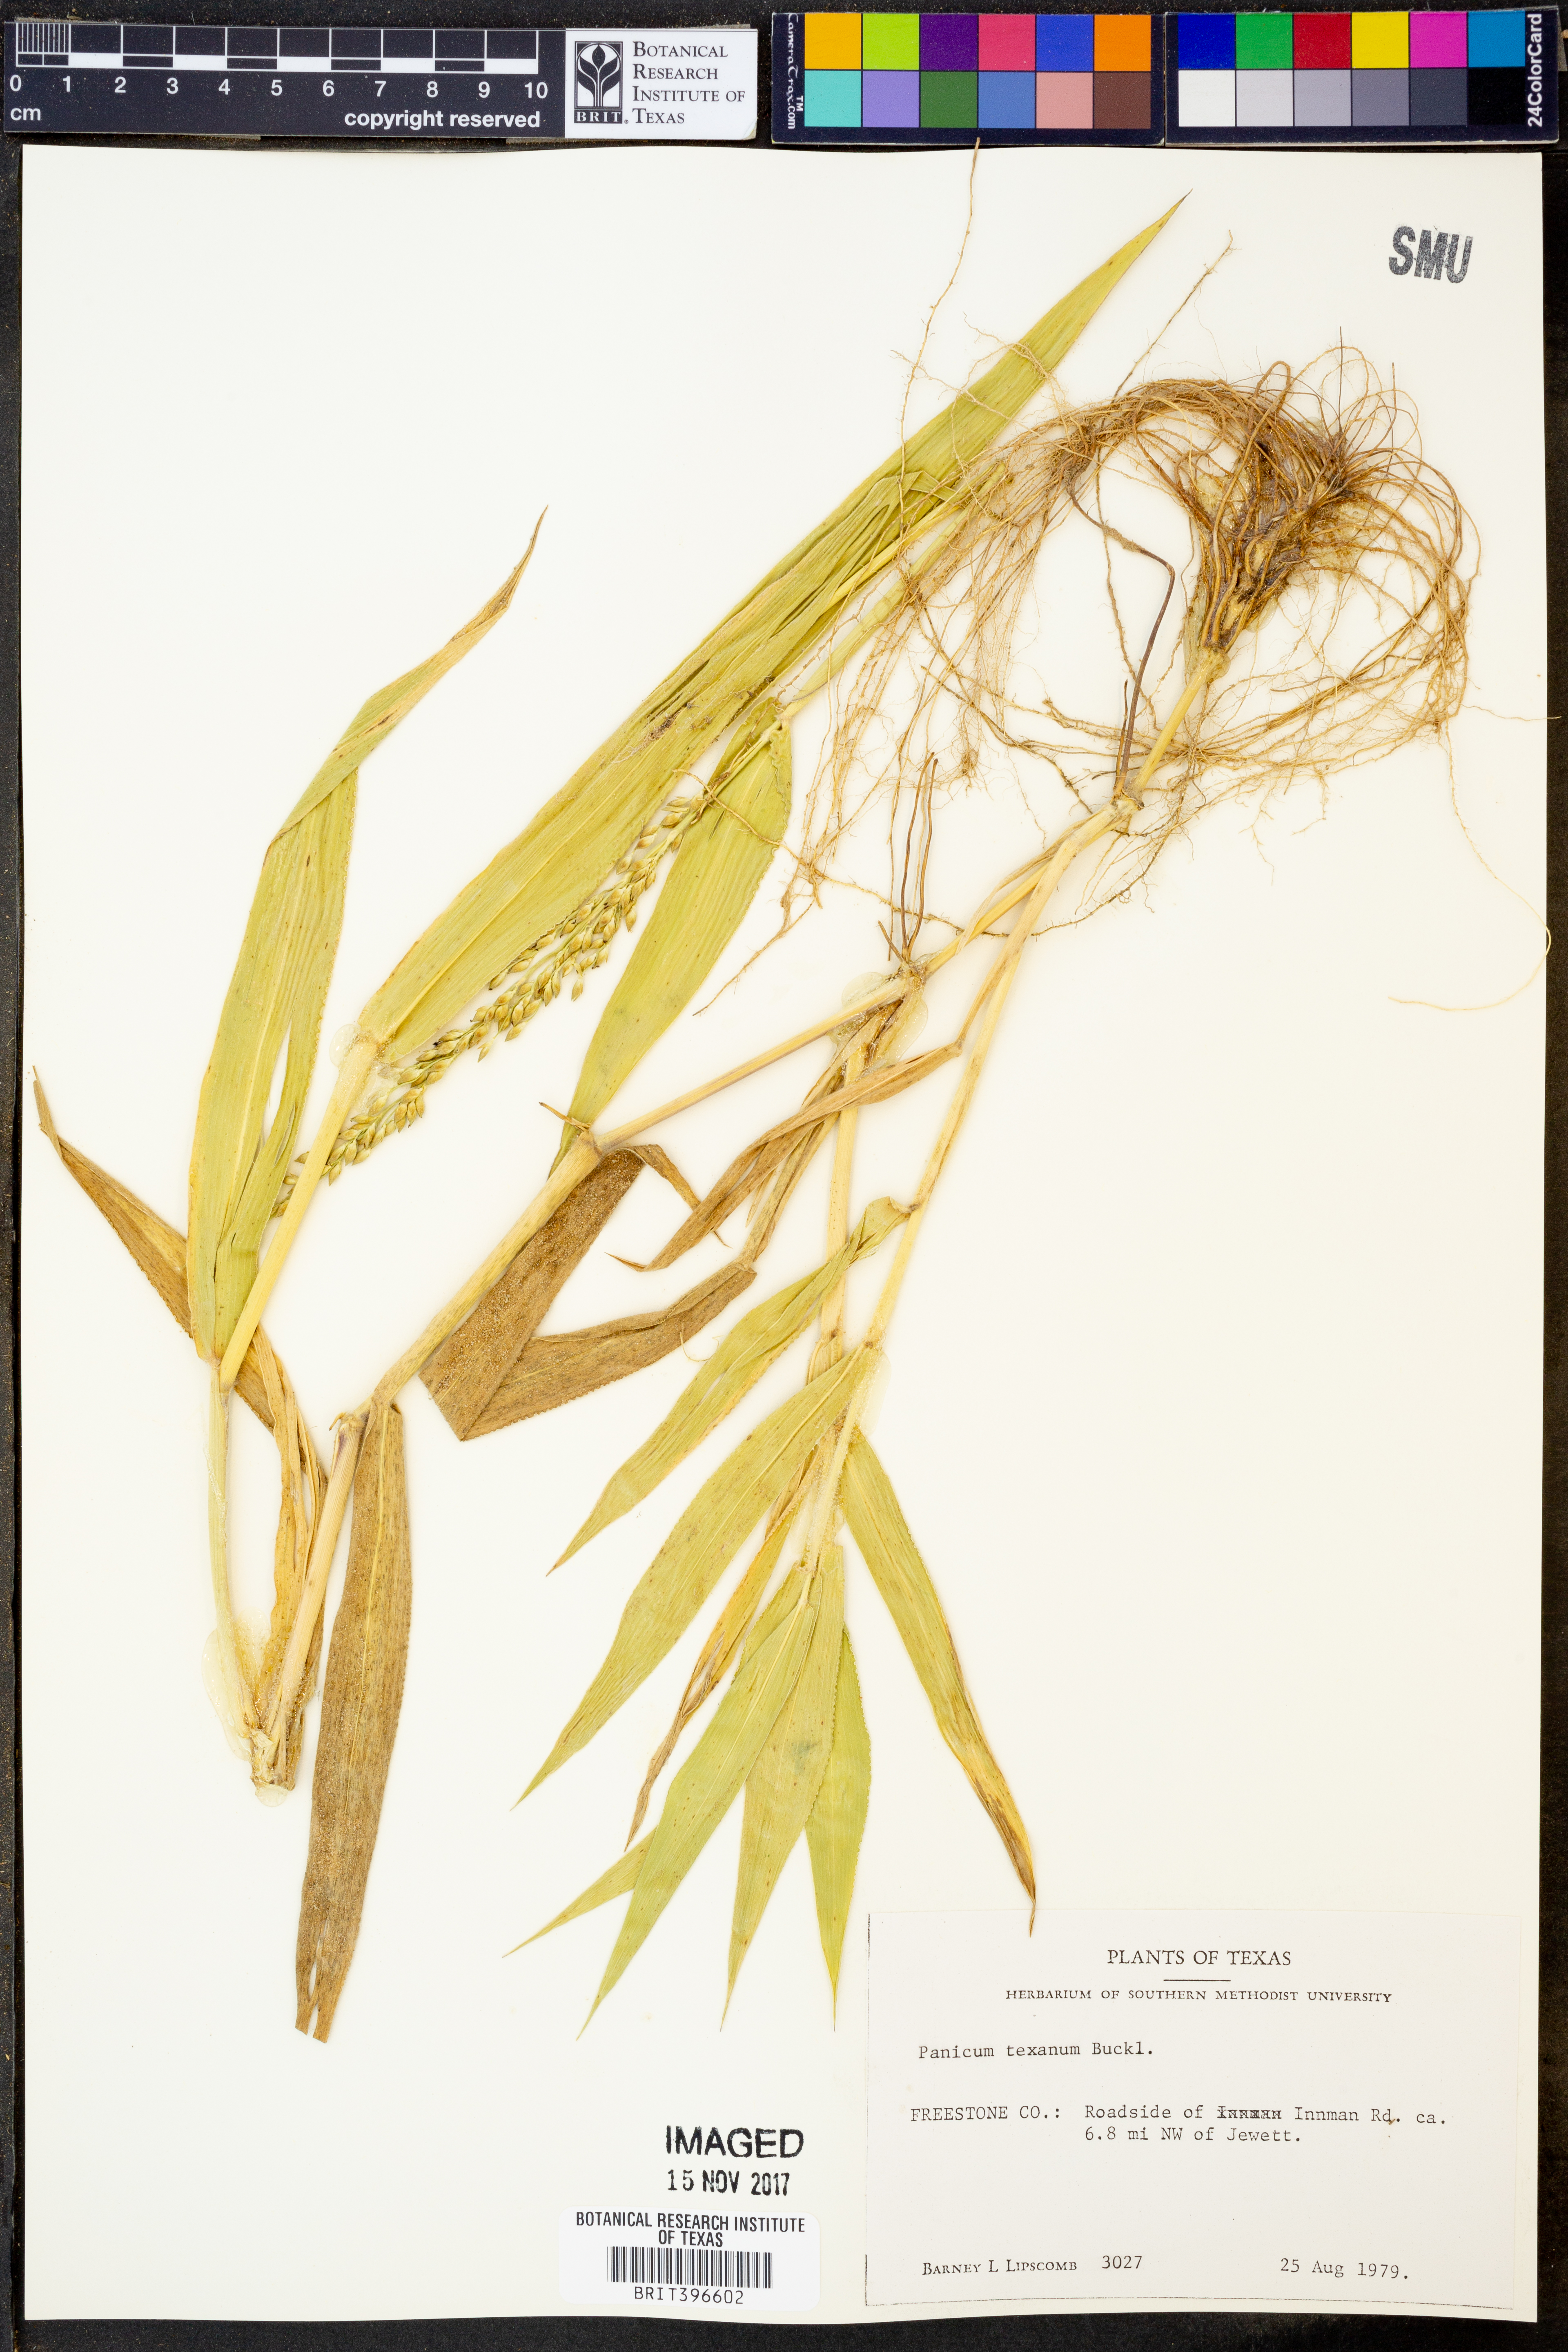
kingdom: Plantae
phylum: Tracheophyta
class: Liliopsida
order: Poales
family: Poaceae
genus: Urochloa
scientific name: Urochloa texana
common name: Texas millet
